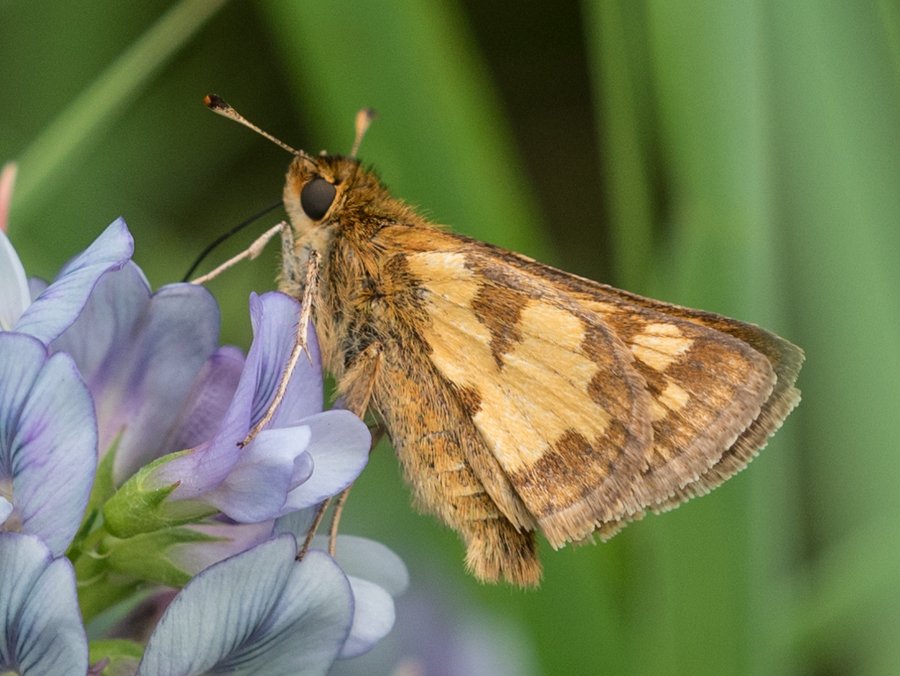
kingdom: Animalia
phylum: Arthropoda
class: Insecta
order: Lepidoptera
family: Hesperiidae
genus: Polites
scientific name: Polites coras
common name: Peck's Skipper
